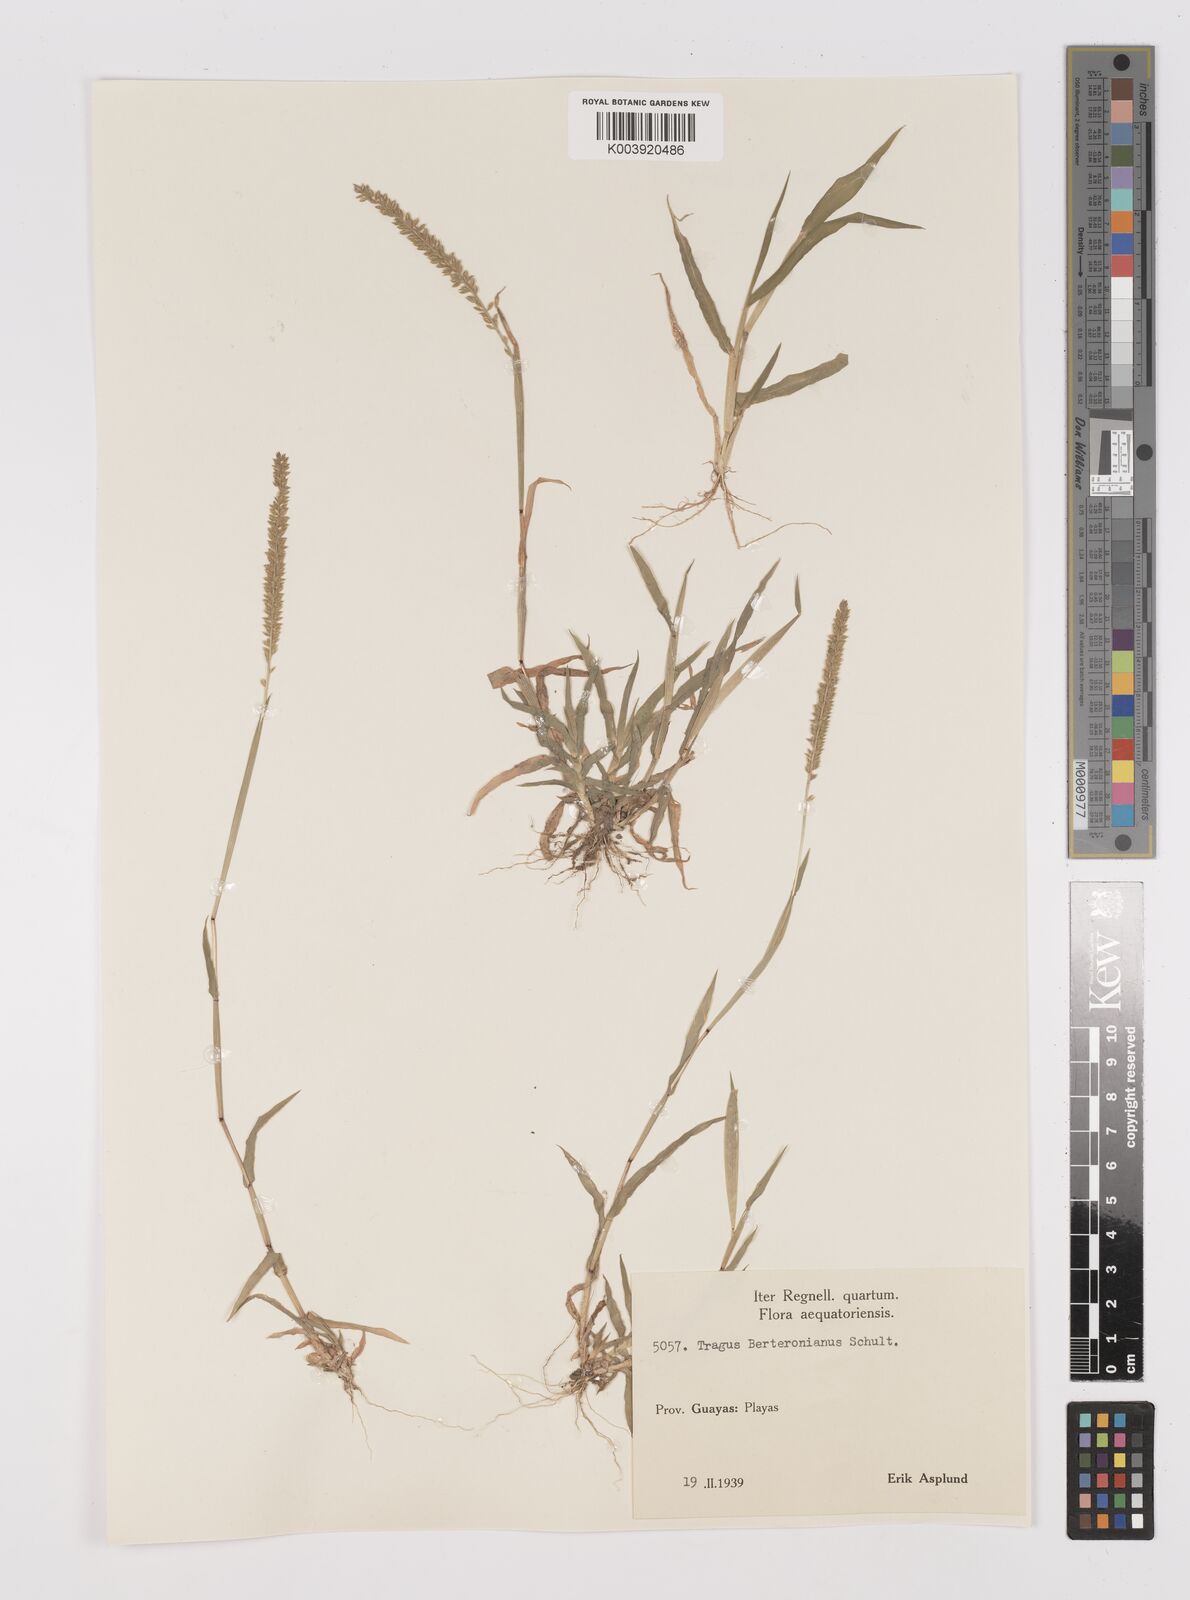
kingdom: Plantae
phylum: Tracheophyta
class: Liliopsida
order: Poales
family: Poaceae
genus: Tragus
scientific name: Tragus berteronianus
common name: African bur-grass
